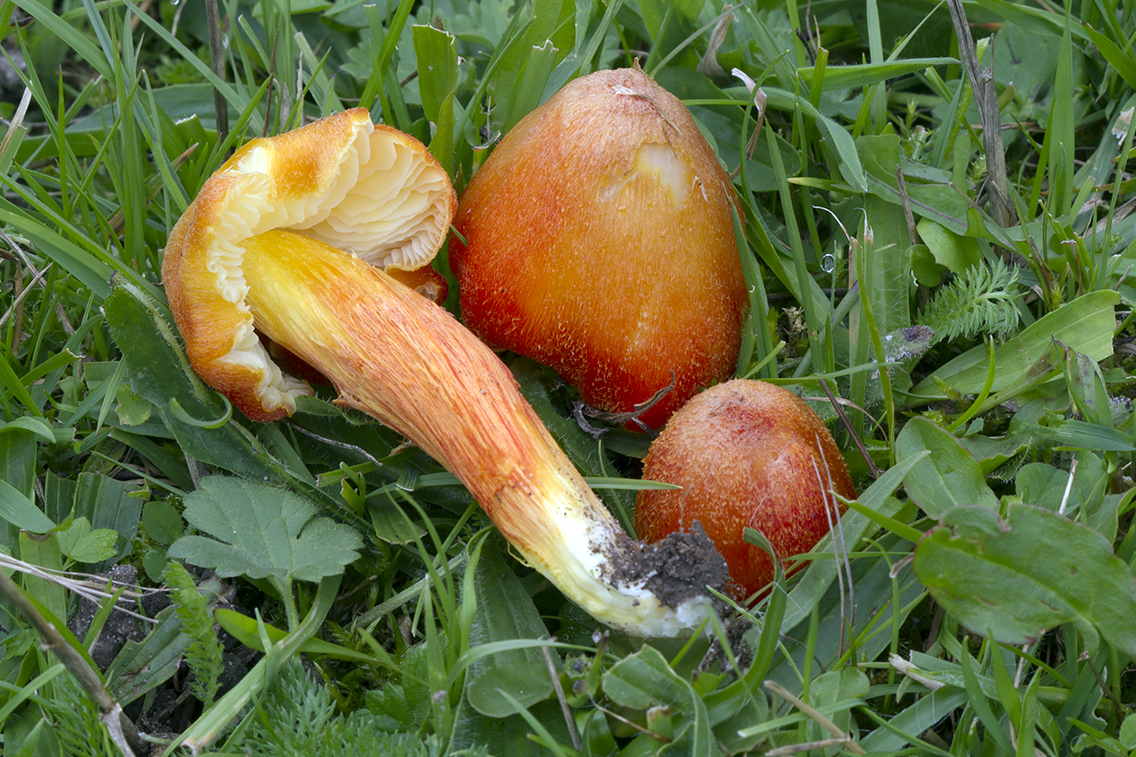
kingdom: Fungi
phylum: Basidiomycota
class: Agaricomycetes
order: Agaricales
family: Hygrophoraceae
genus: Hygrocybe
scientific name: Hygrocybe intermedia
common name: trævlet vokshat
